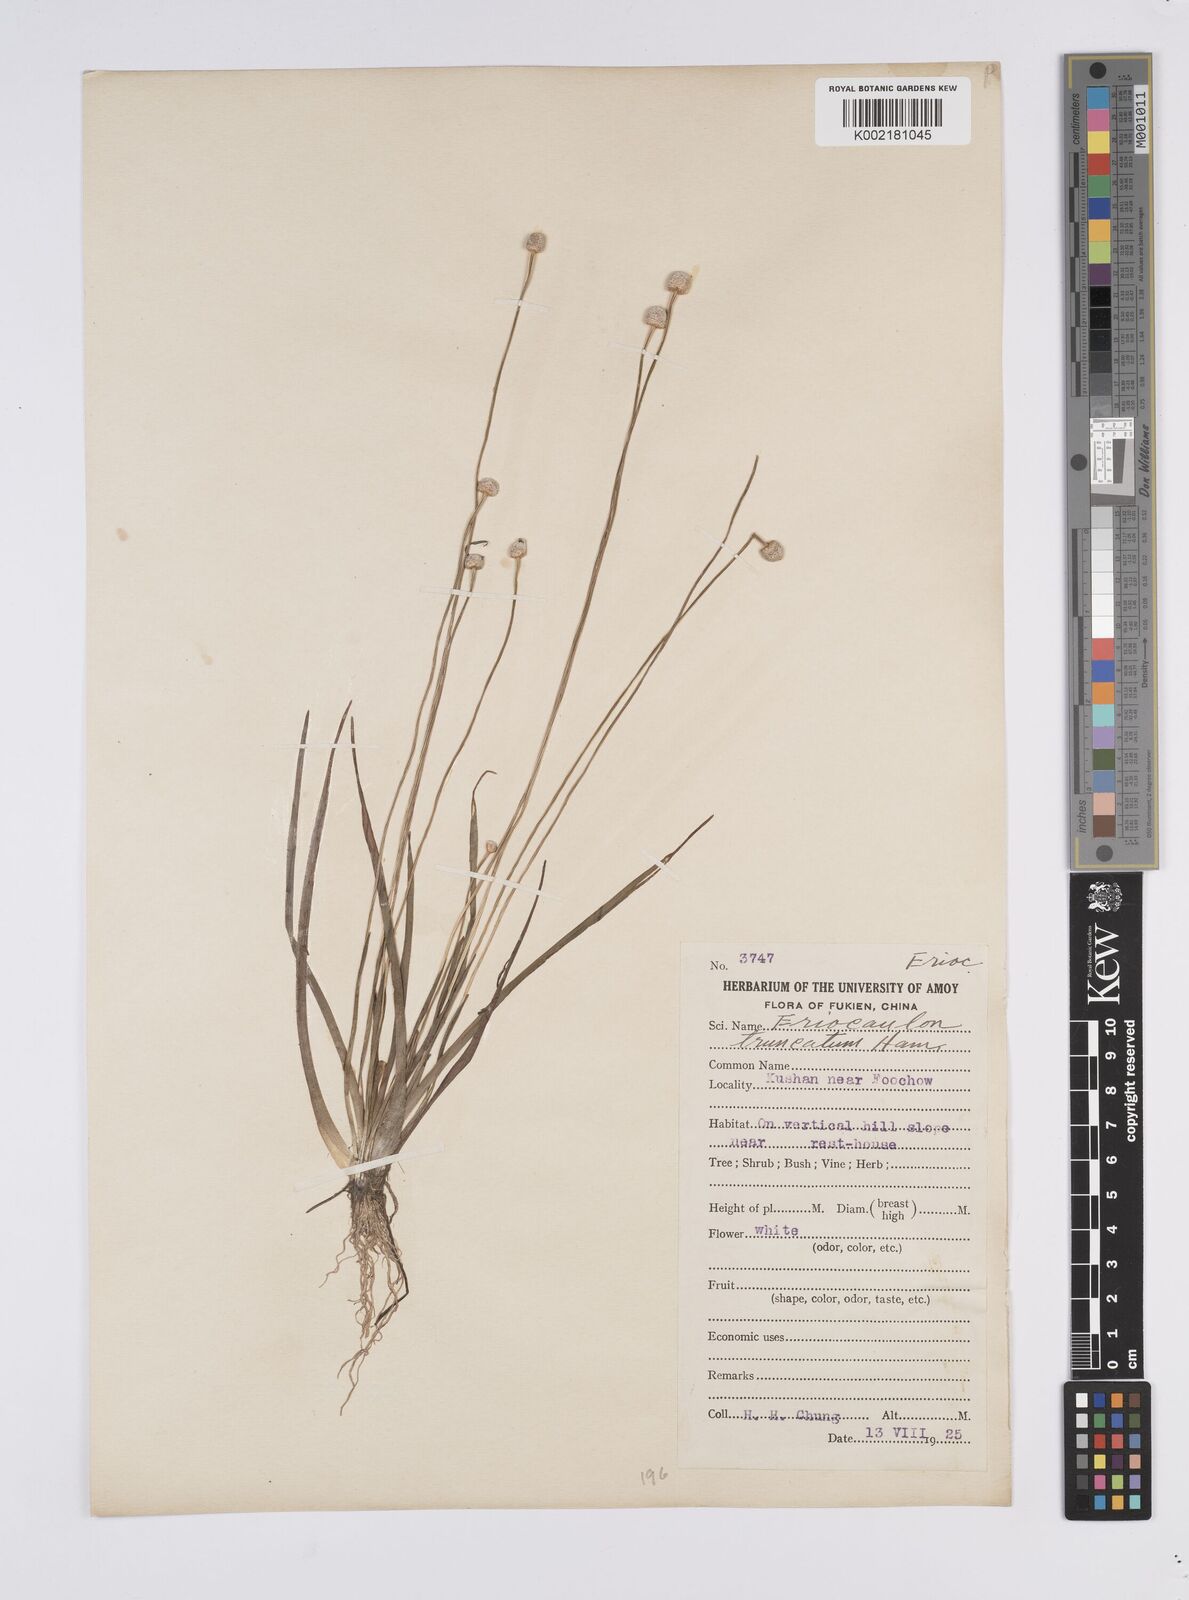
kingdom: Plantae
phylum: Tracheophyta
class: Liliopsida
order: Poales
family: Eriocaulaceae
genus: Eriocaulon
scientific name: Eriocaulon truncatum
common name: Short pipe-wort
